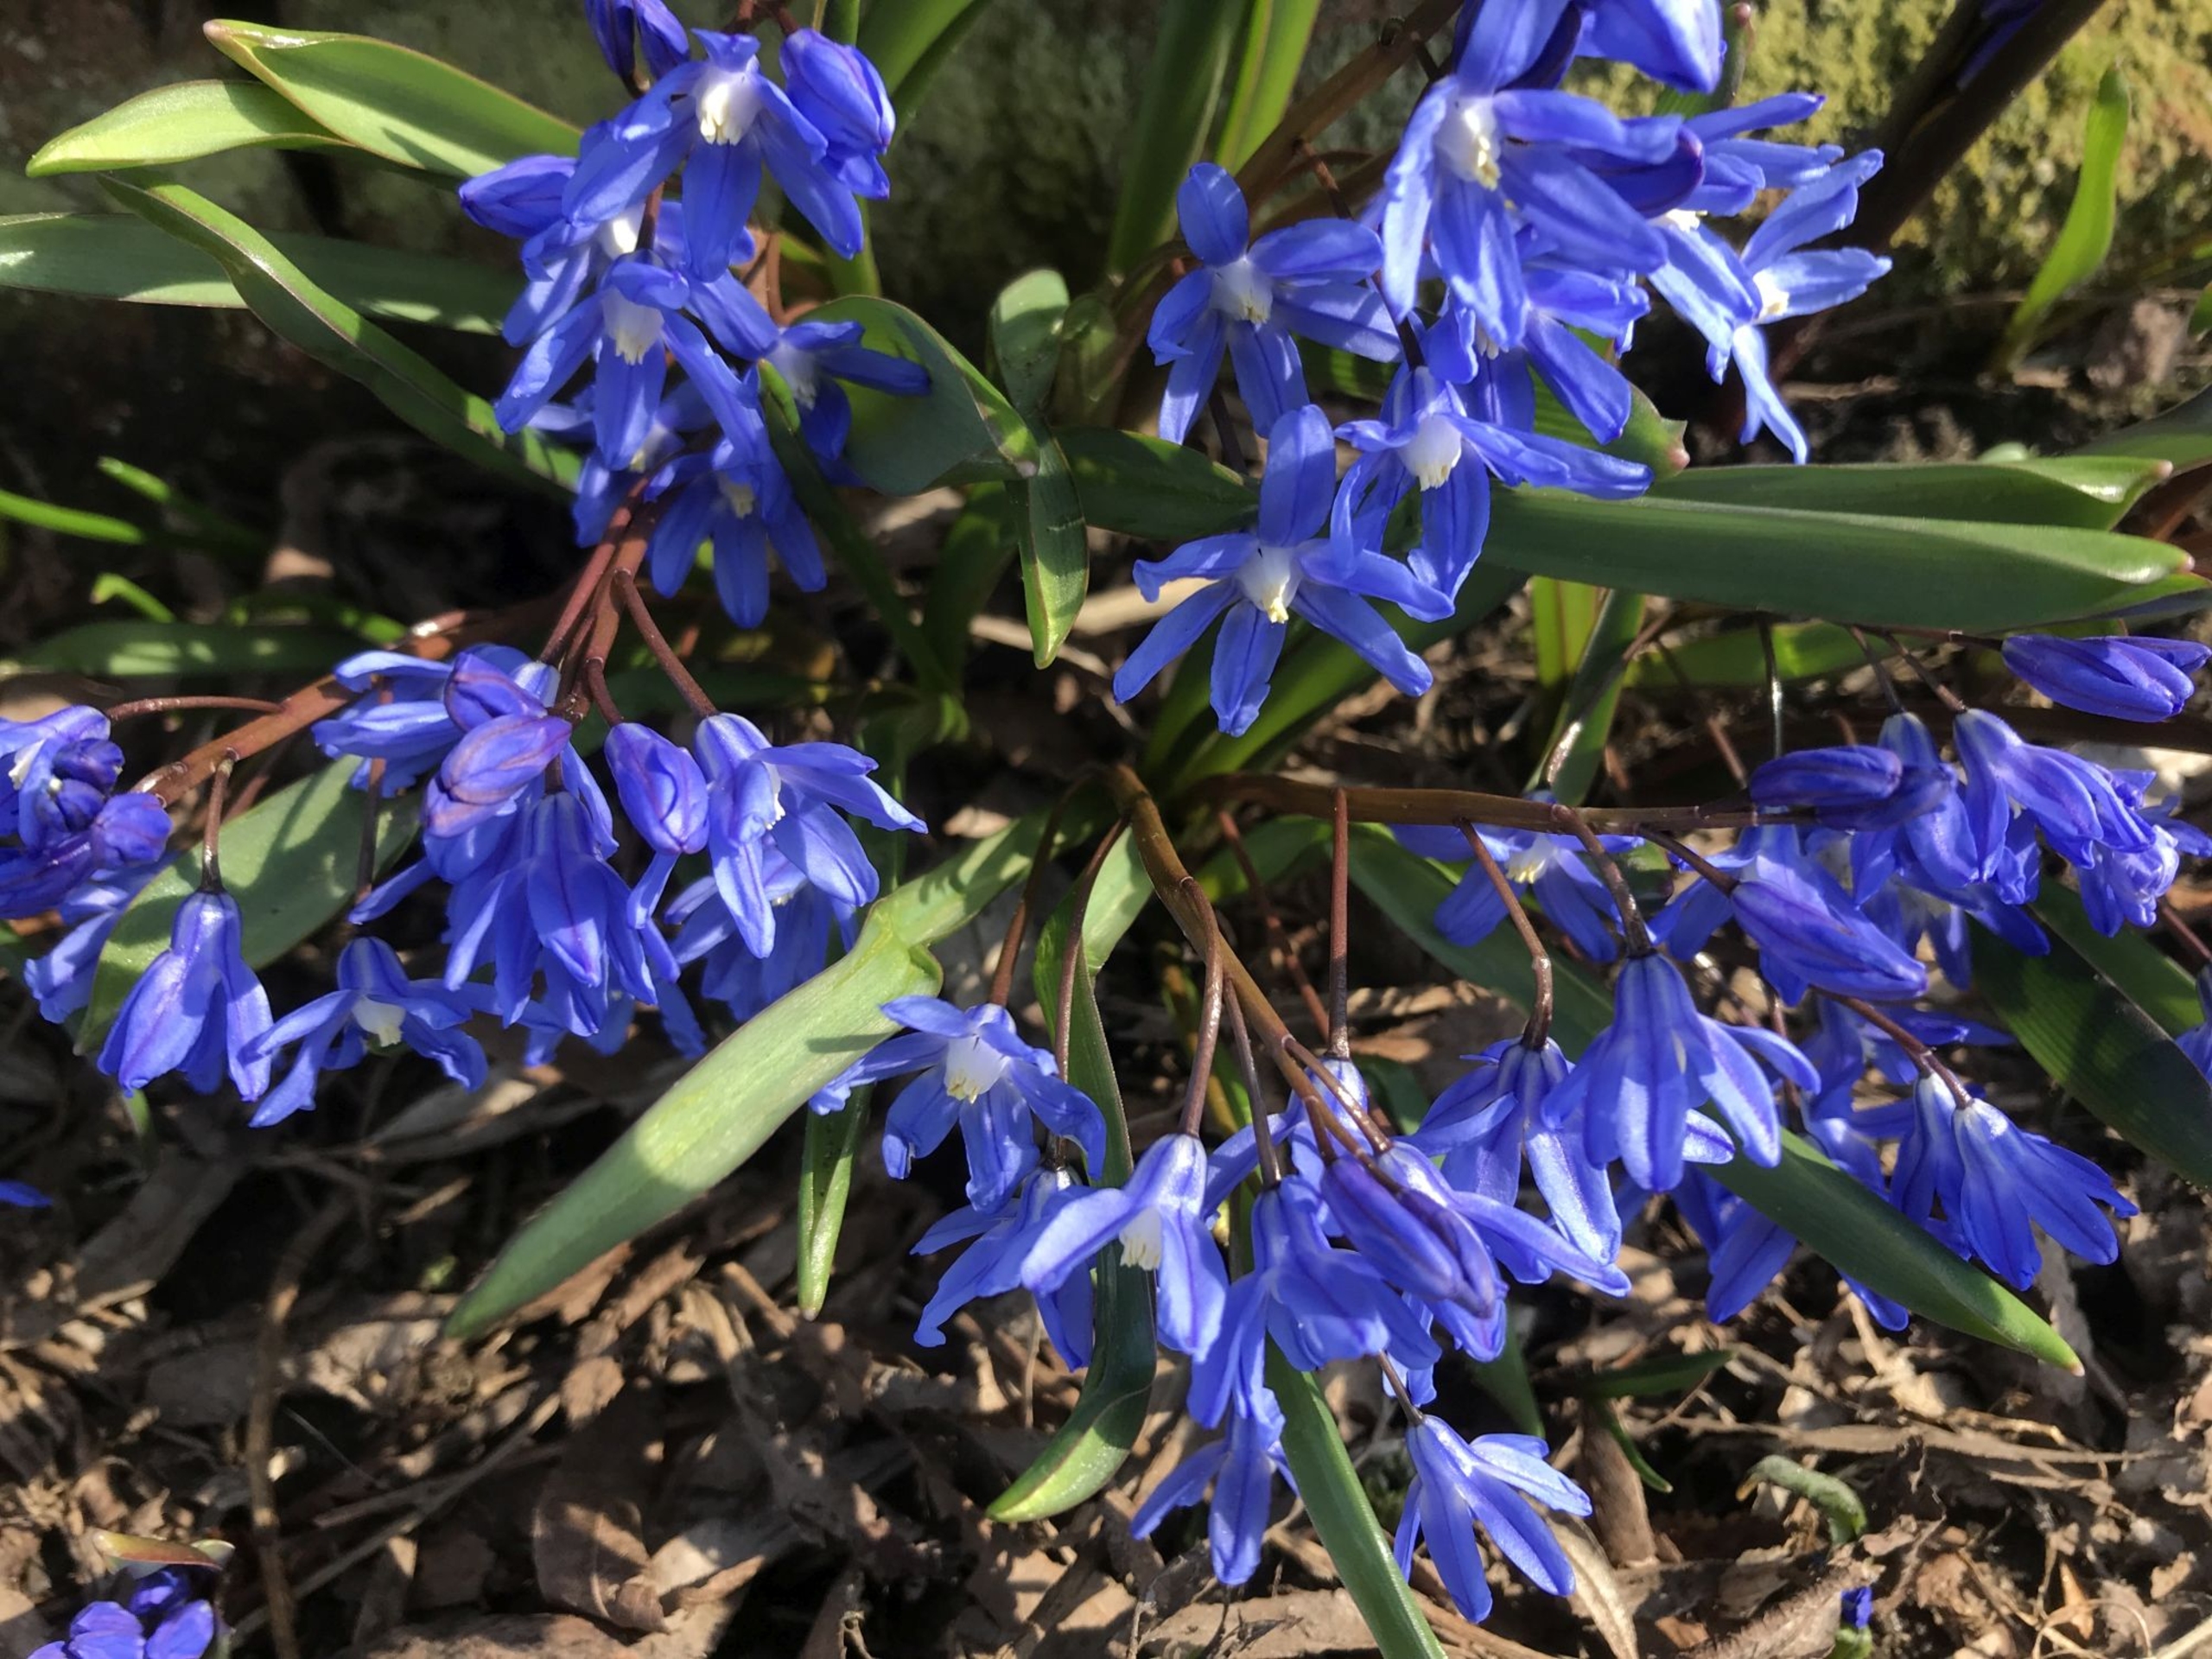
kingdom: Plantae
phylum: Tracheophyta
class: Liliopsida
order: Asparagales
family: Asparagaceae
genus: Scilla
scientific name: Scilla sardensis
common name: Liden snepryd
